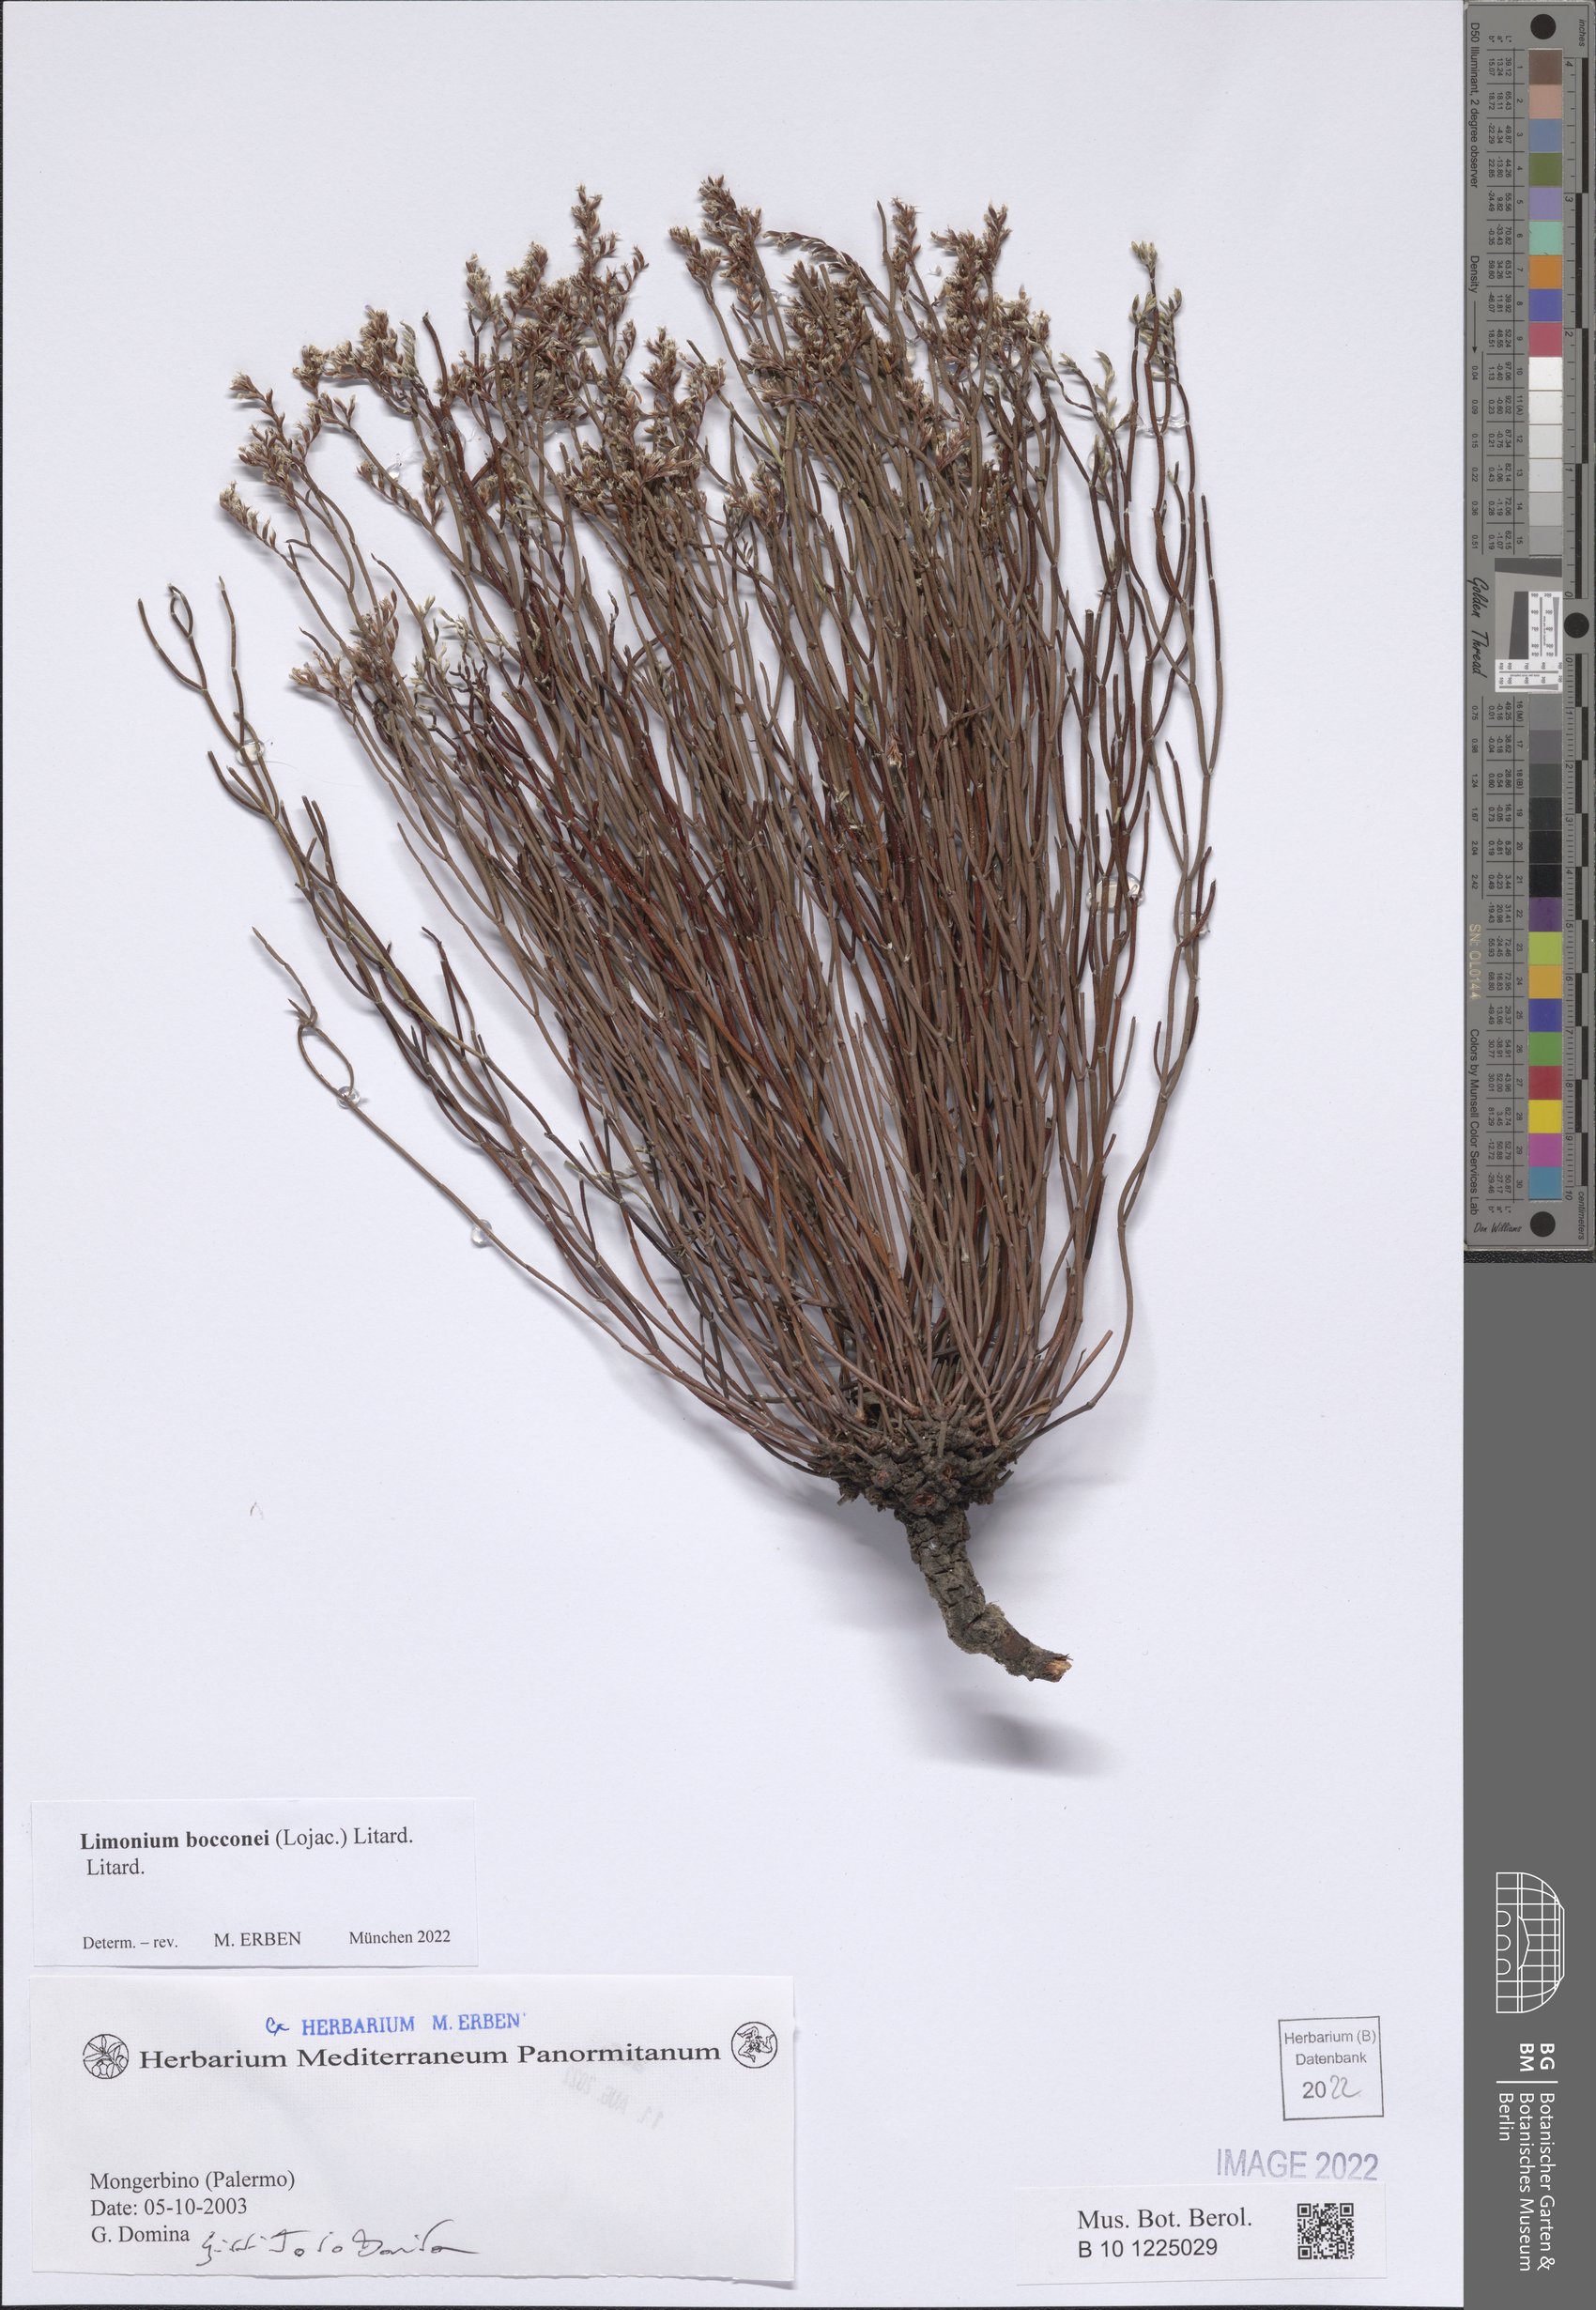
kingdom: Plantae
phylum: Tracheophyta
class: Magnoliopsida
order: Caryophyllales
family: Plumbaginaceae
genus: Limonium
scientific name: Limonium bocconei
